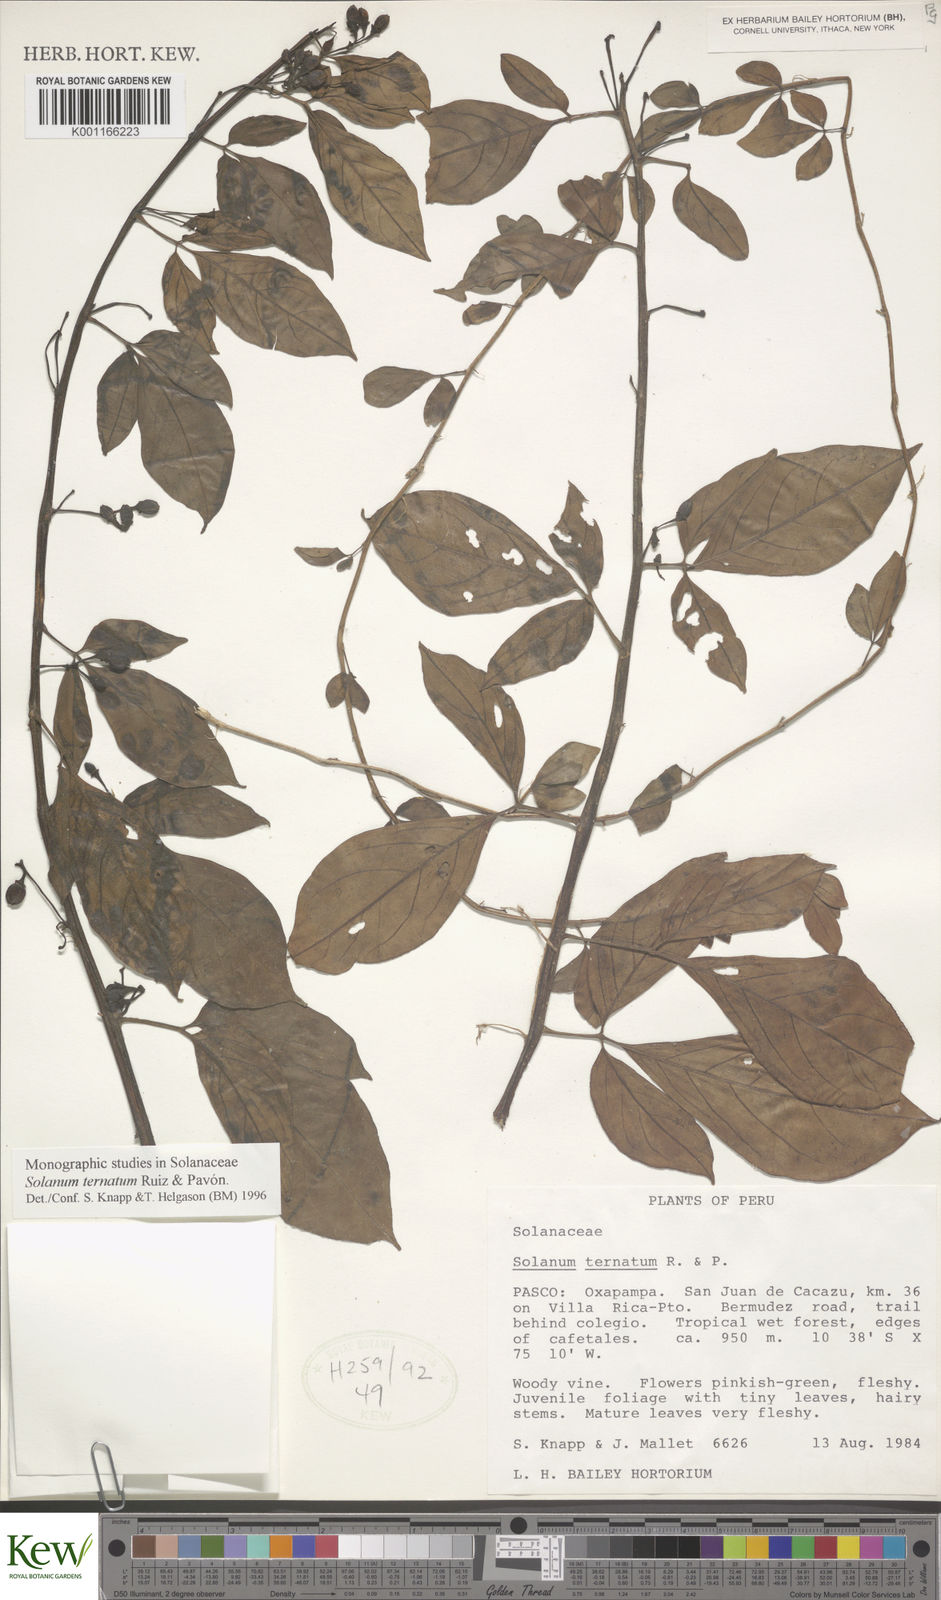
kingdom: Plantae
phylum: Tracheophyta
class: Magnoliopsida
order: Solanales
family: Solanaceae
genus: Solanum
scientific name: Solanum ternatum
